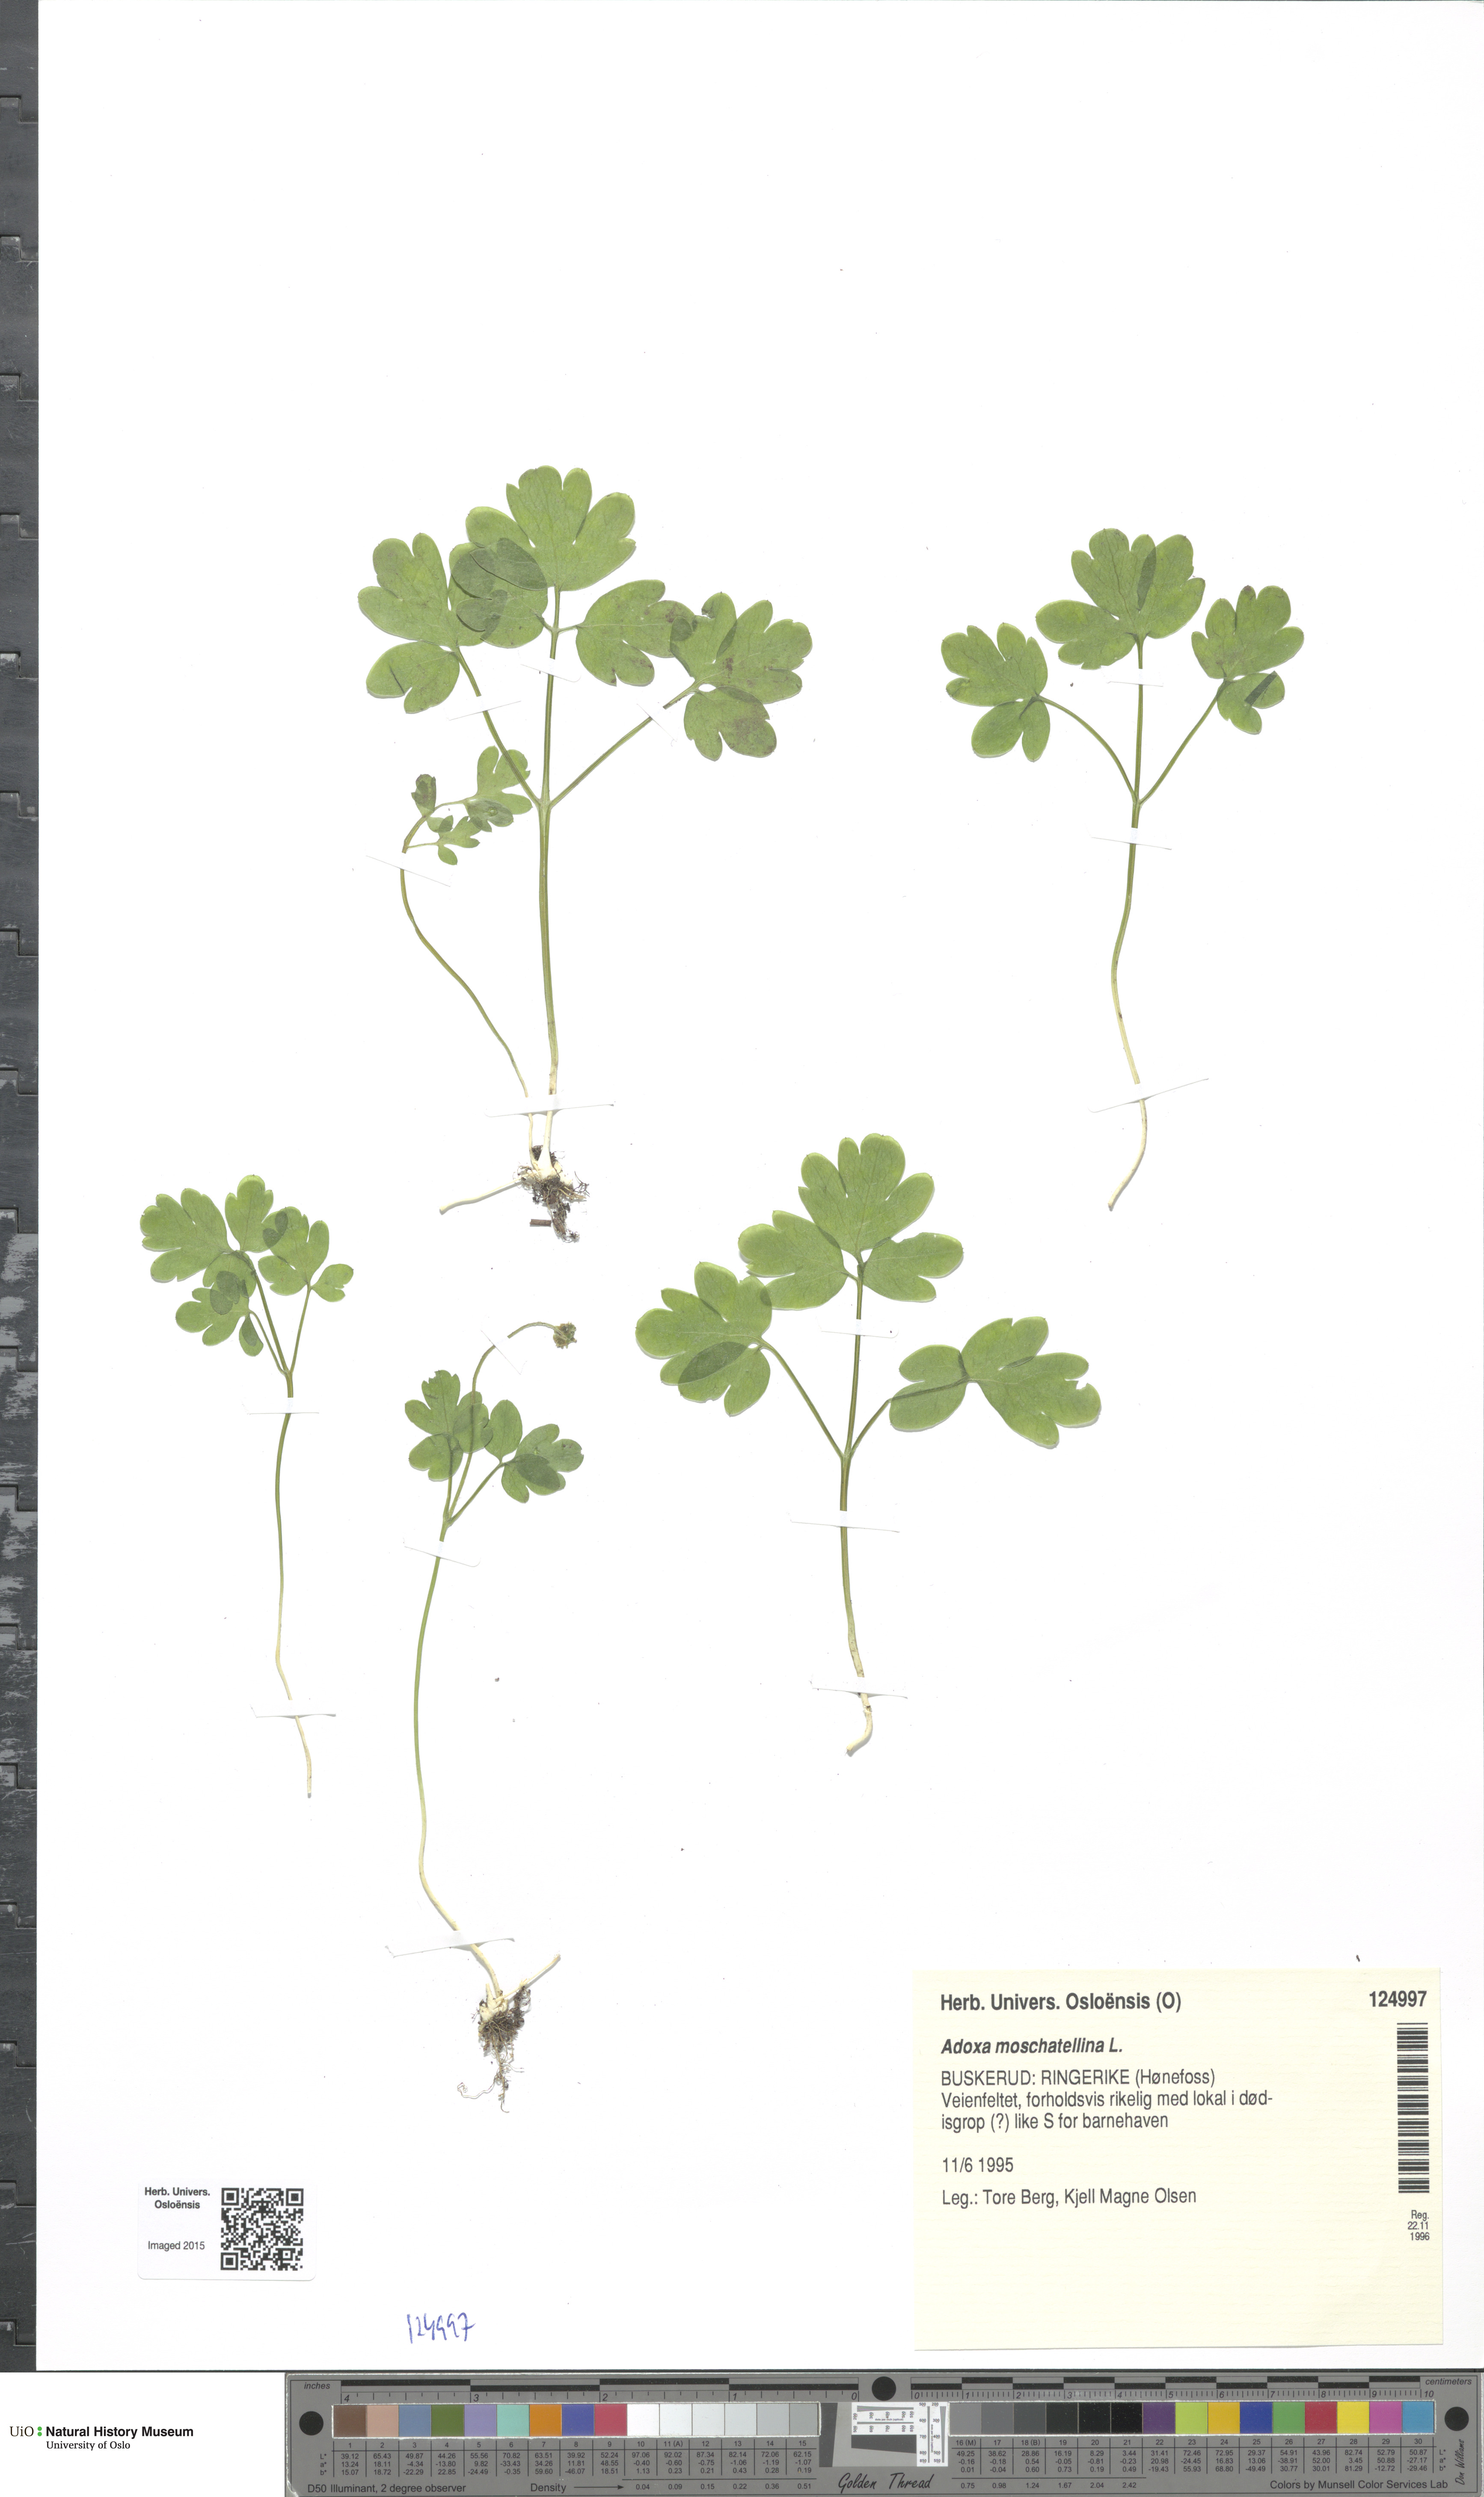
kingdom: Plantae
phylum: Tracheophyta
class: Magnoliopsida
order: Dipsacales
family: Viburnaceae
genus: Adoxa
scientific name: Adoxa moschatellina
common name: Moschatel
